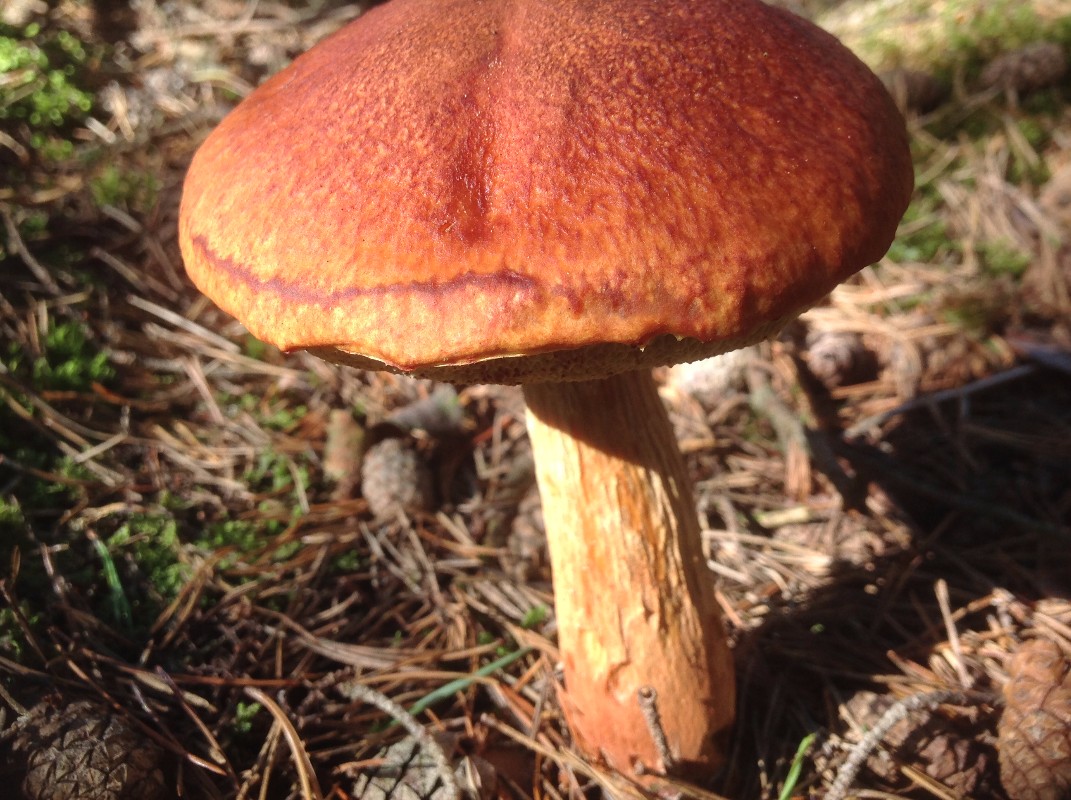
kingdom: Fungi
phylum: Basidiomycota
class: Agaricomycetes
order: Boletales
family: Boletaceae
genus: Aureoboletus
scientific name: Aureoboletus projectellus
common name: ribbestokket rørhat
